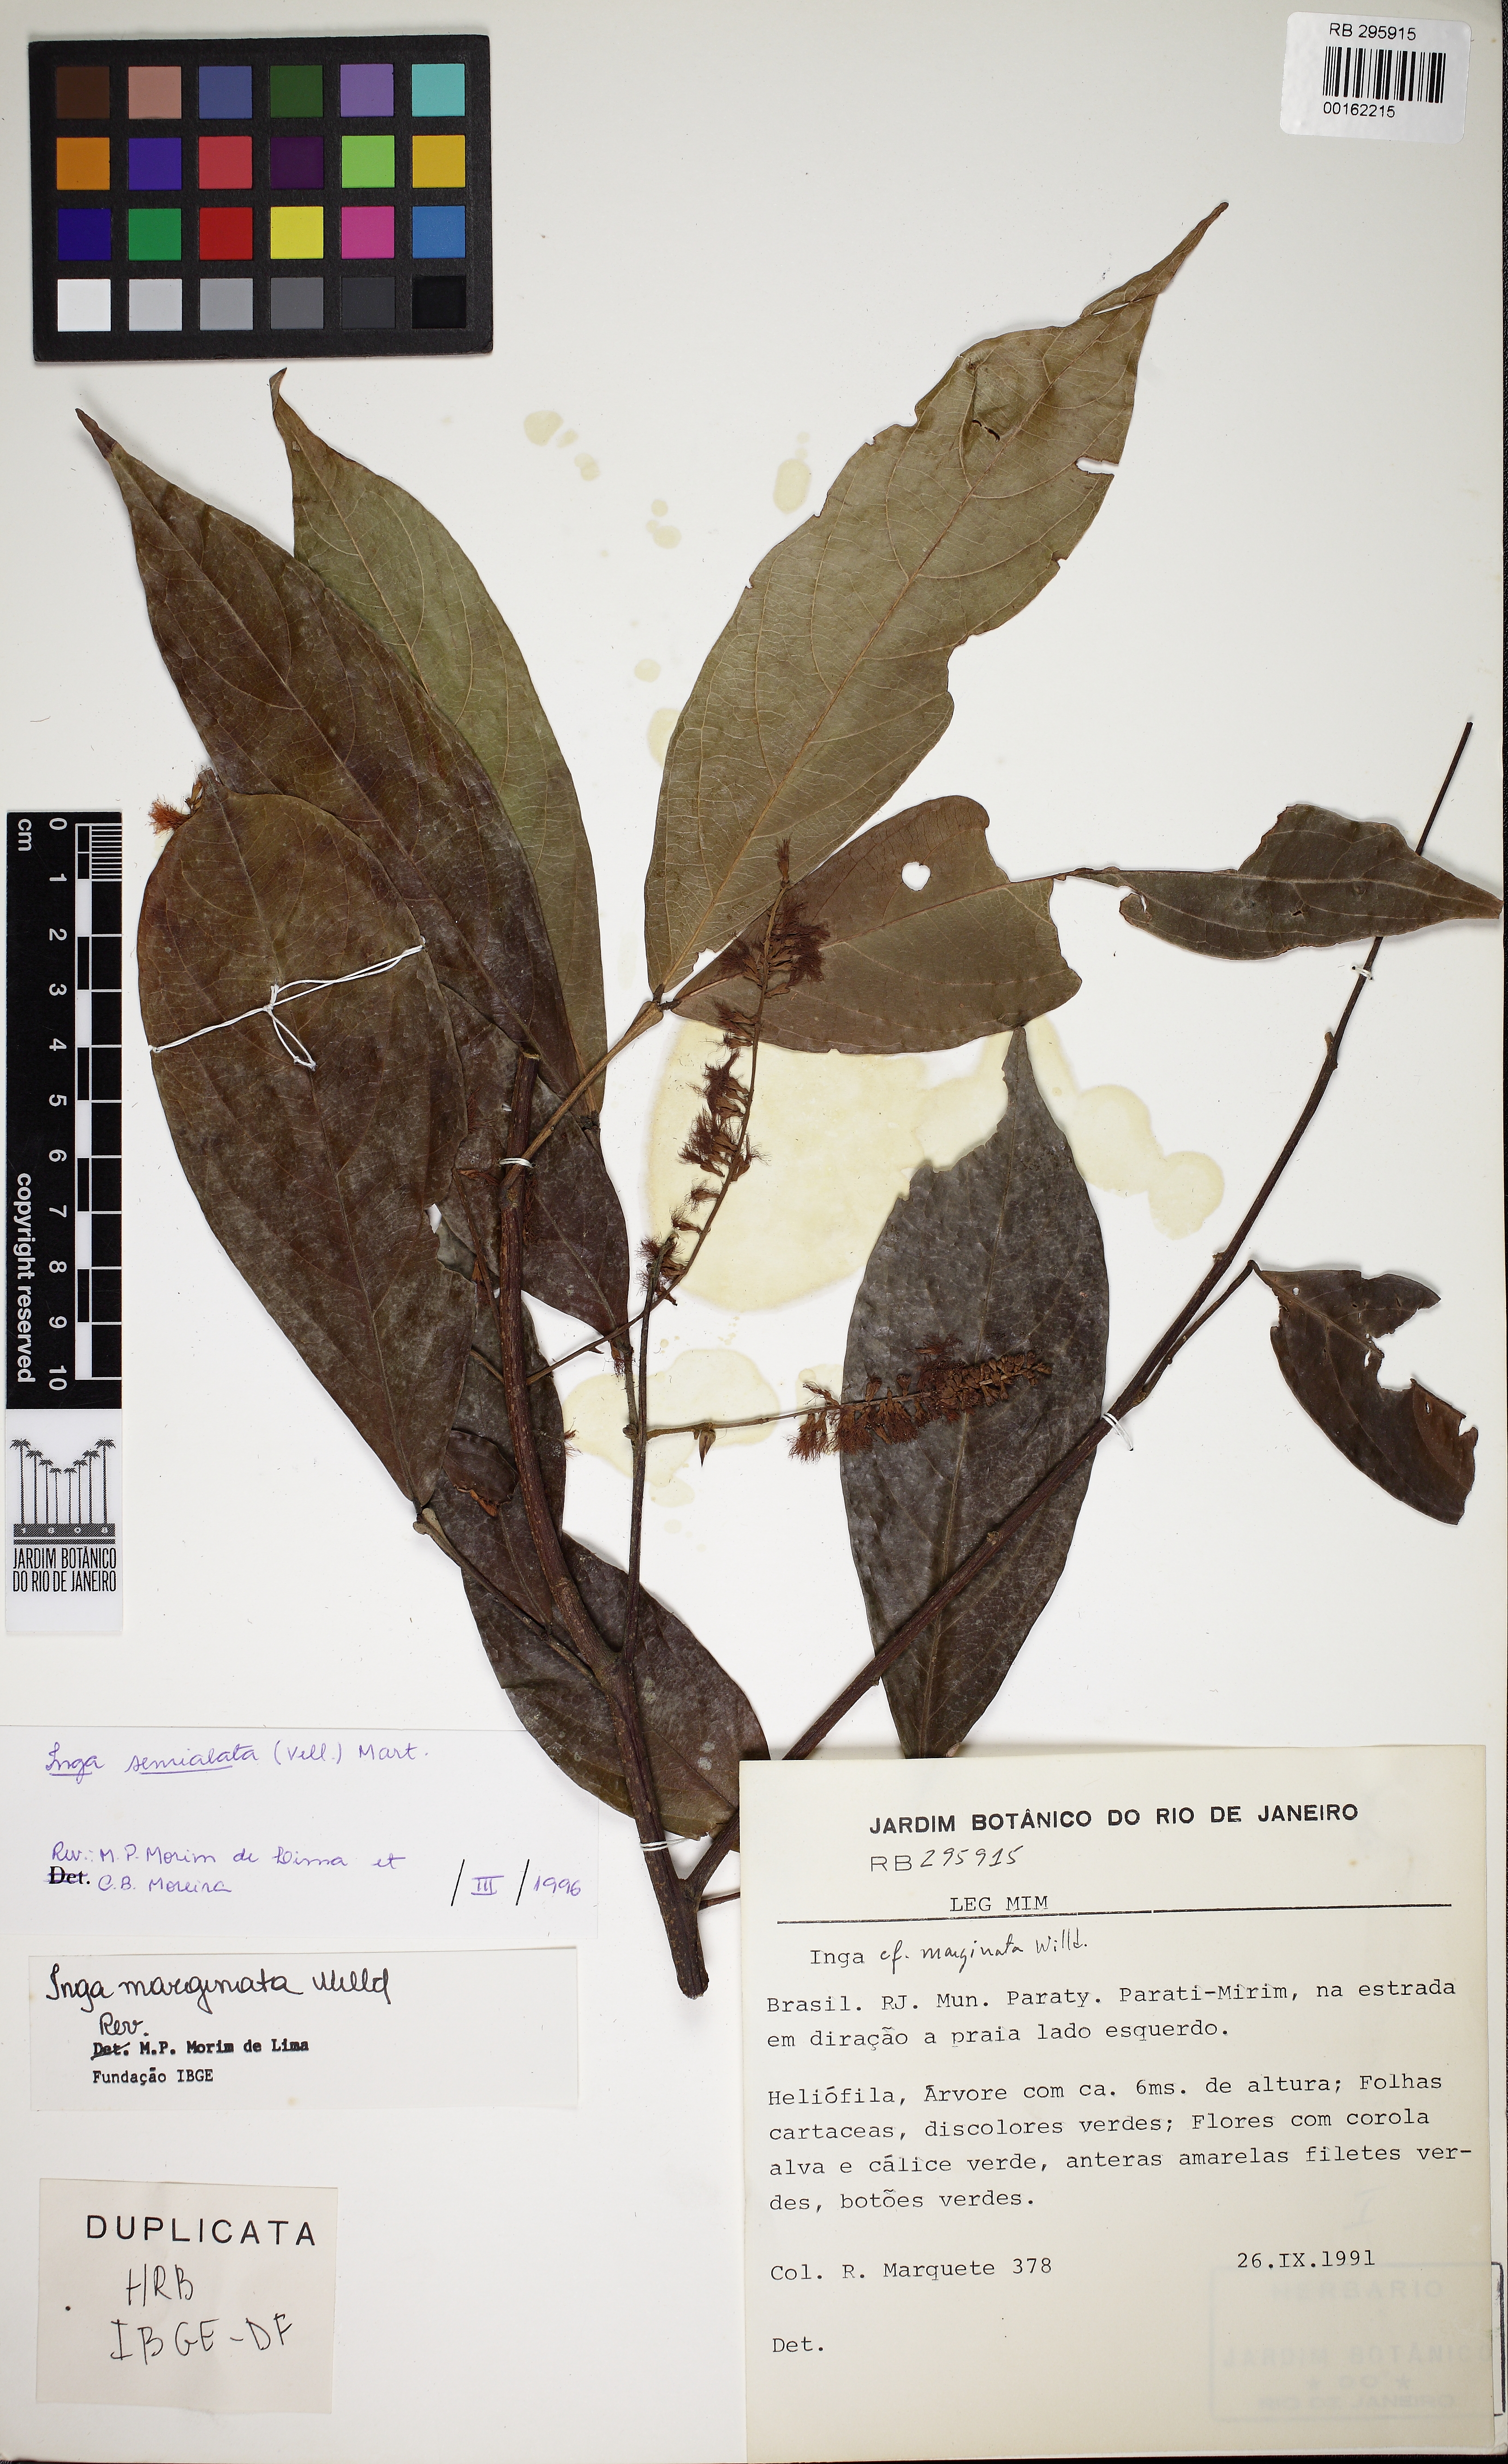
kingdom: Plantae
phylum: Tracheophyta
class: Magnoliopsida
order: Fabales
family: Fabaceae
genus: Inga
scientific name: Inga marginata
